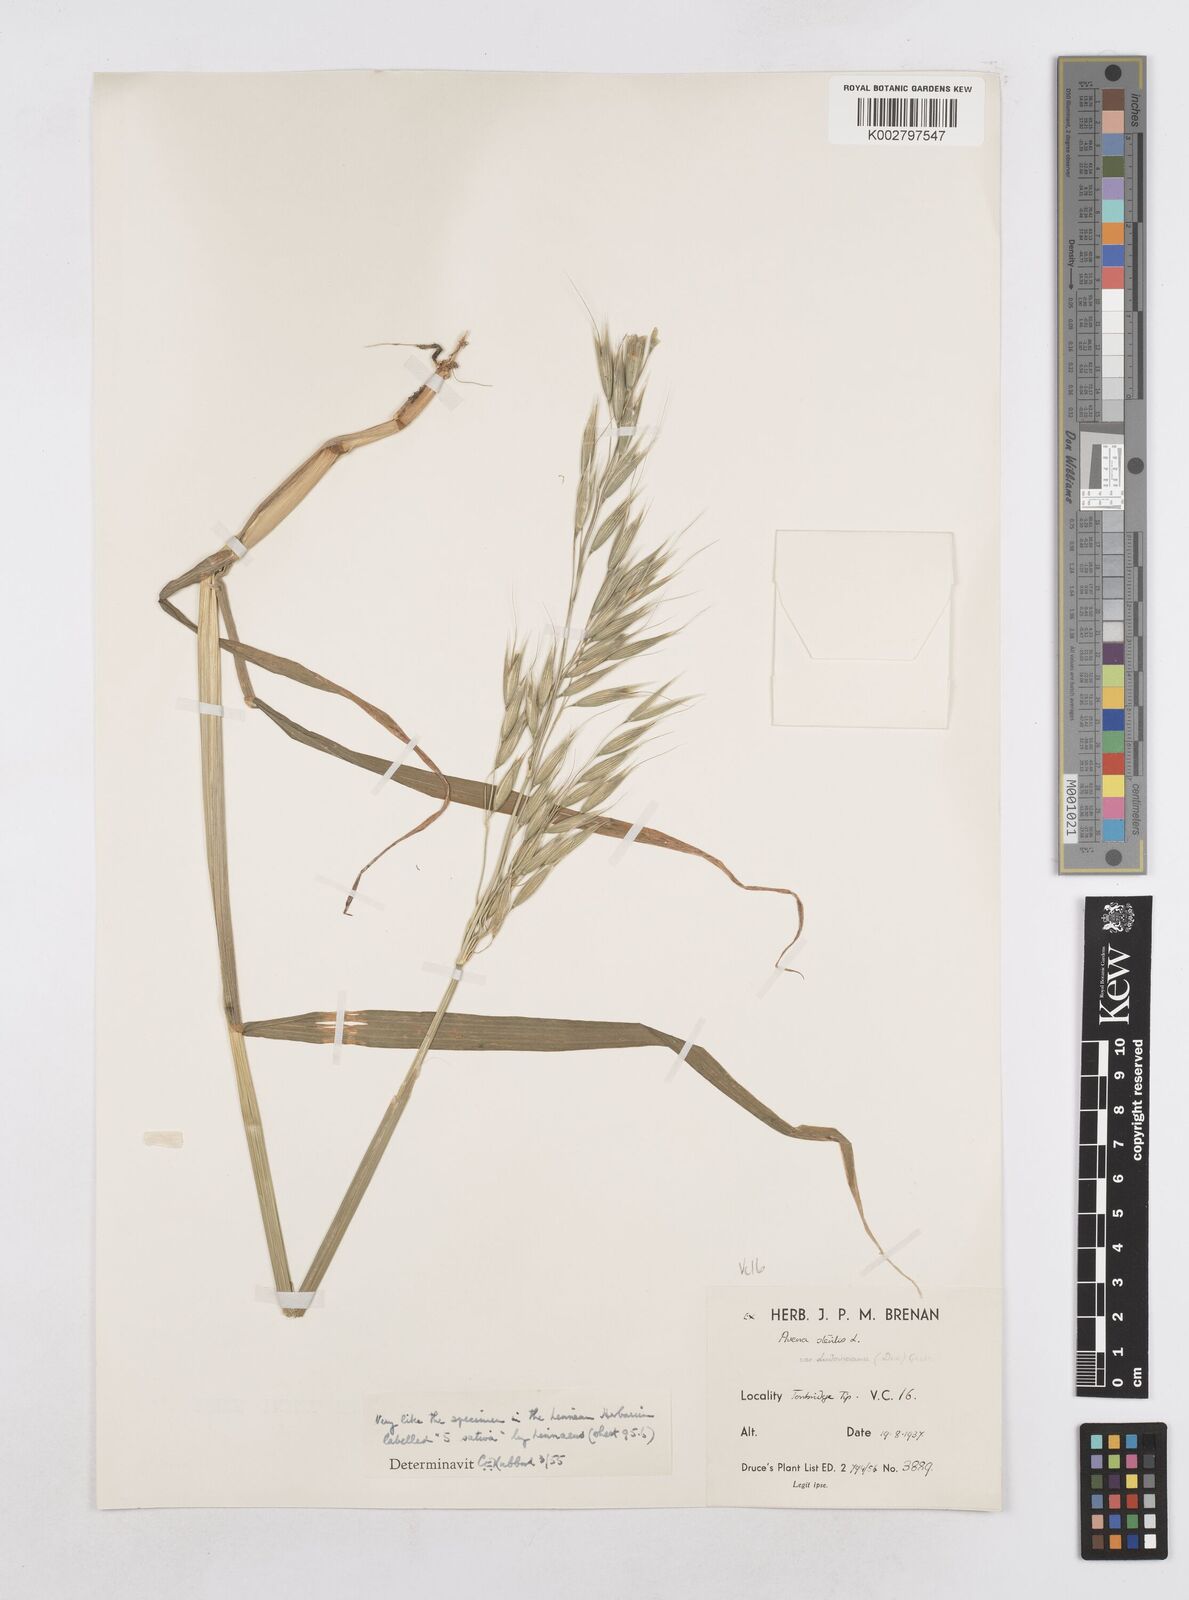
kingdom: Plantae
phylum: Tracheophyta
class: Liliopsida
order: Poales
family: Poaceae
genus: Avena
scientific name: Avena sativa
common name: Oat
